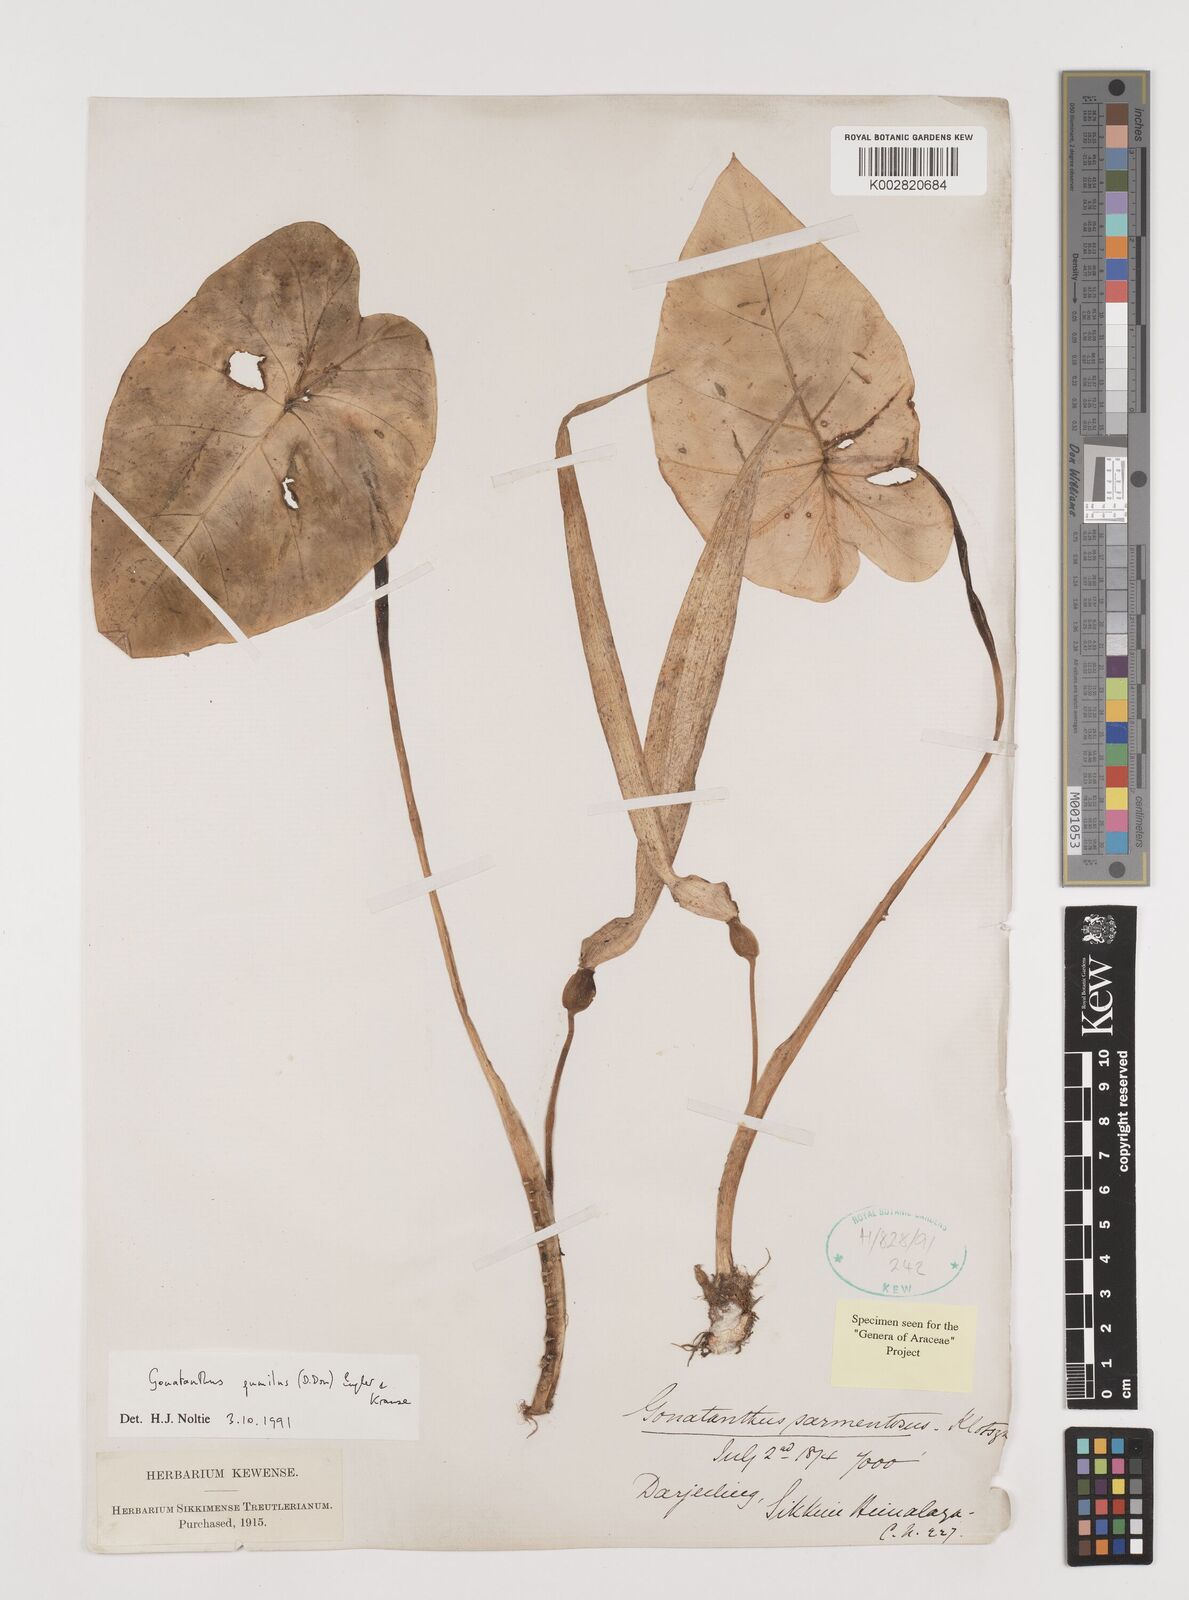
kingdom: Plantae
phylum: Tracheophyta
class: Liliopsida
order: Alismatales
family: Araceae
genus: Remusatia
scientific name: Remusatia pumila
